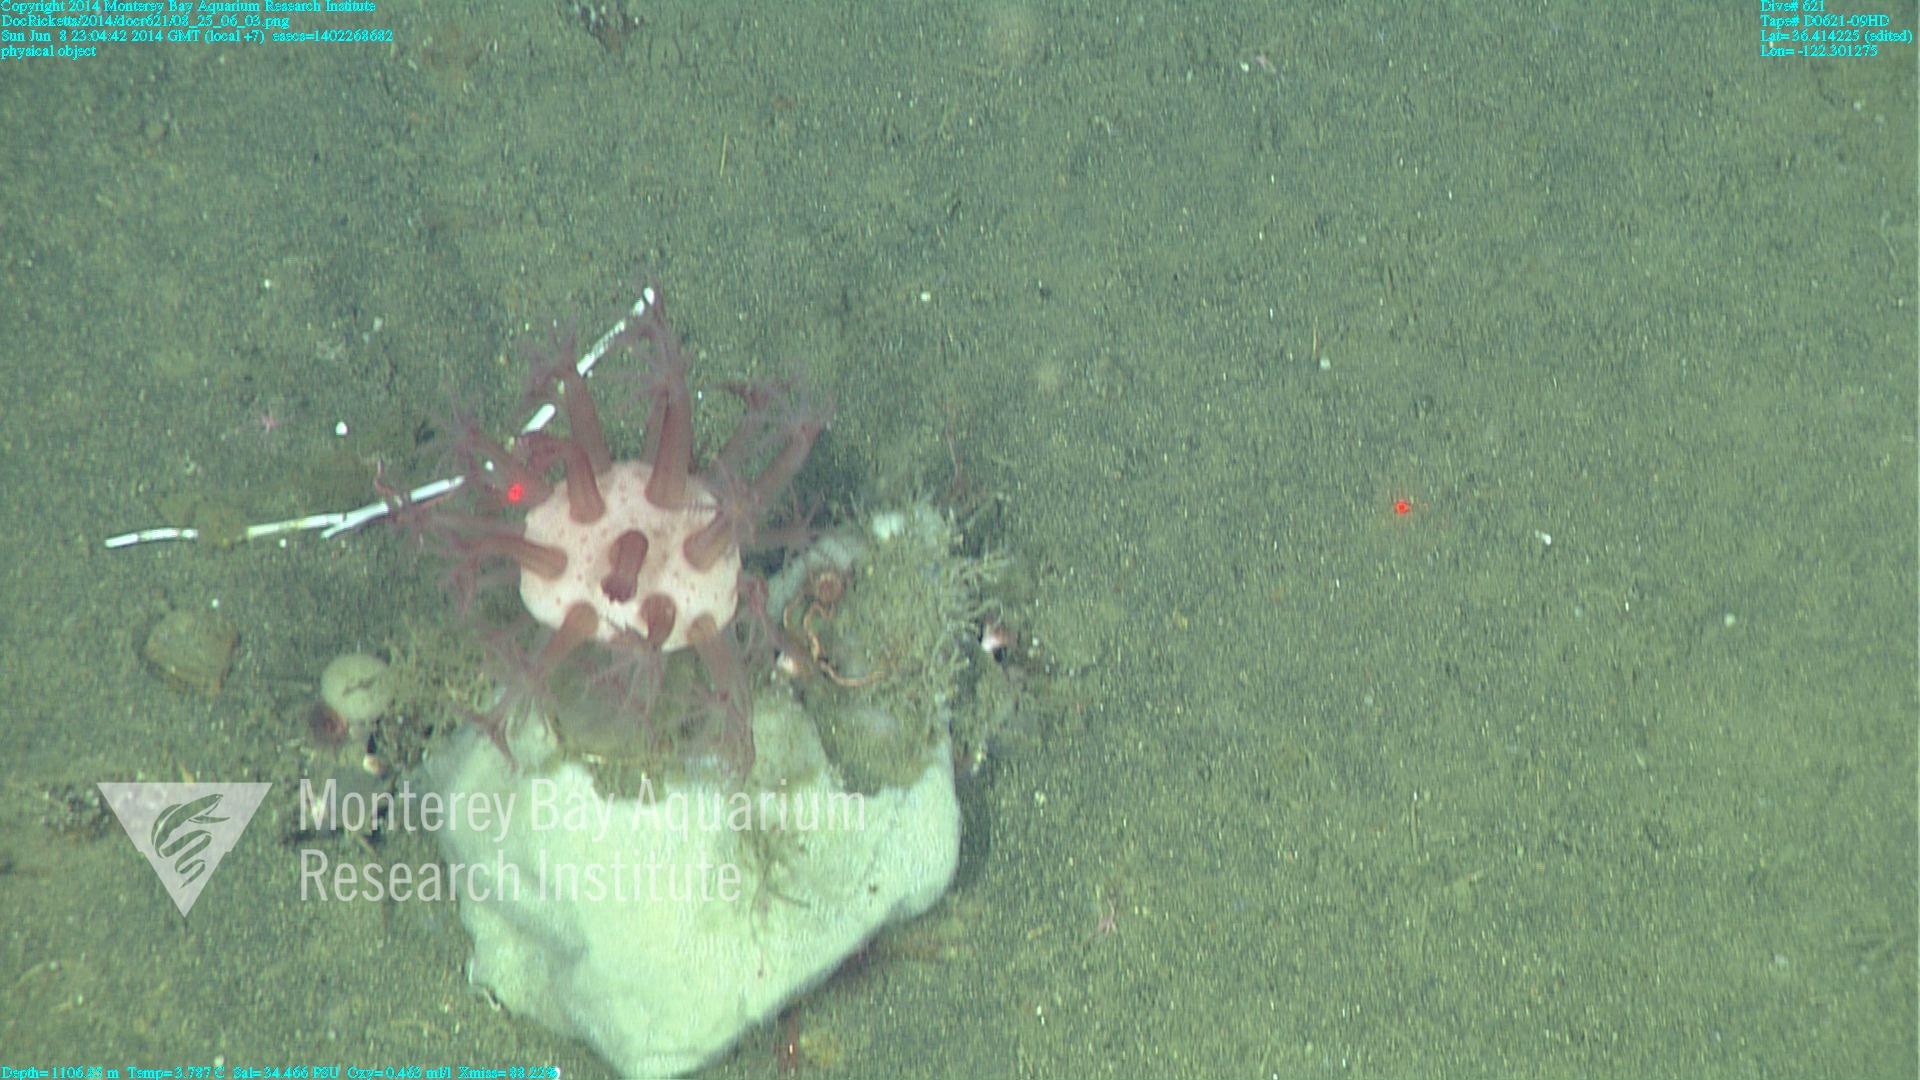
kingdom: Animalia
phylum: Cnidaria
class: Anthozoa
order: Scleralcyonacea
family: Coralliidae
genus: Heteropolypus
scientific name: Heteropolypus ritteri
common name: Ritter's soft coral
